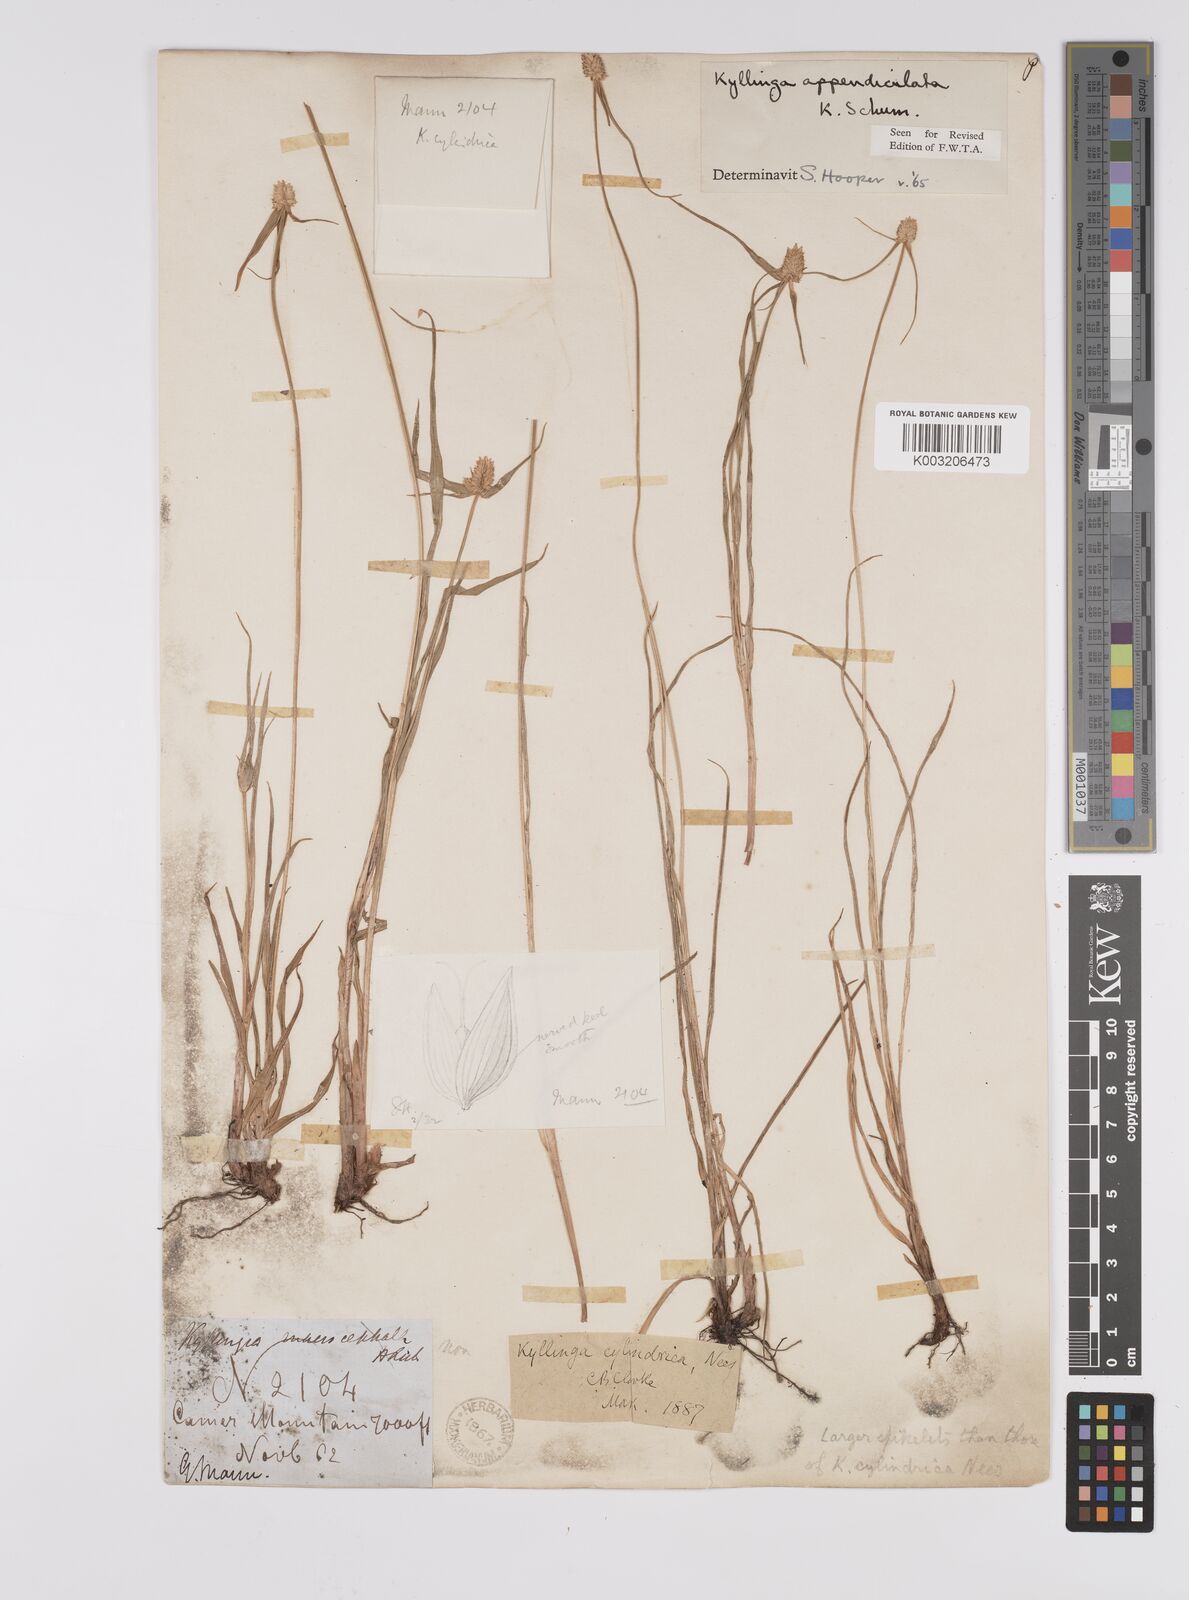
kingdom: Plantae
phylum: Tracheophyta
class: Liliopsida
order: Poales
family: Cyperaceae
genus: Cyperus
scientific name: Cyperus sesquiflorus
